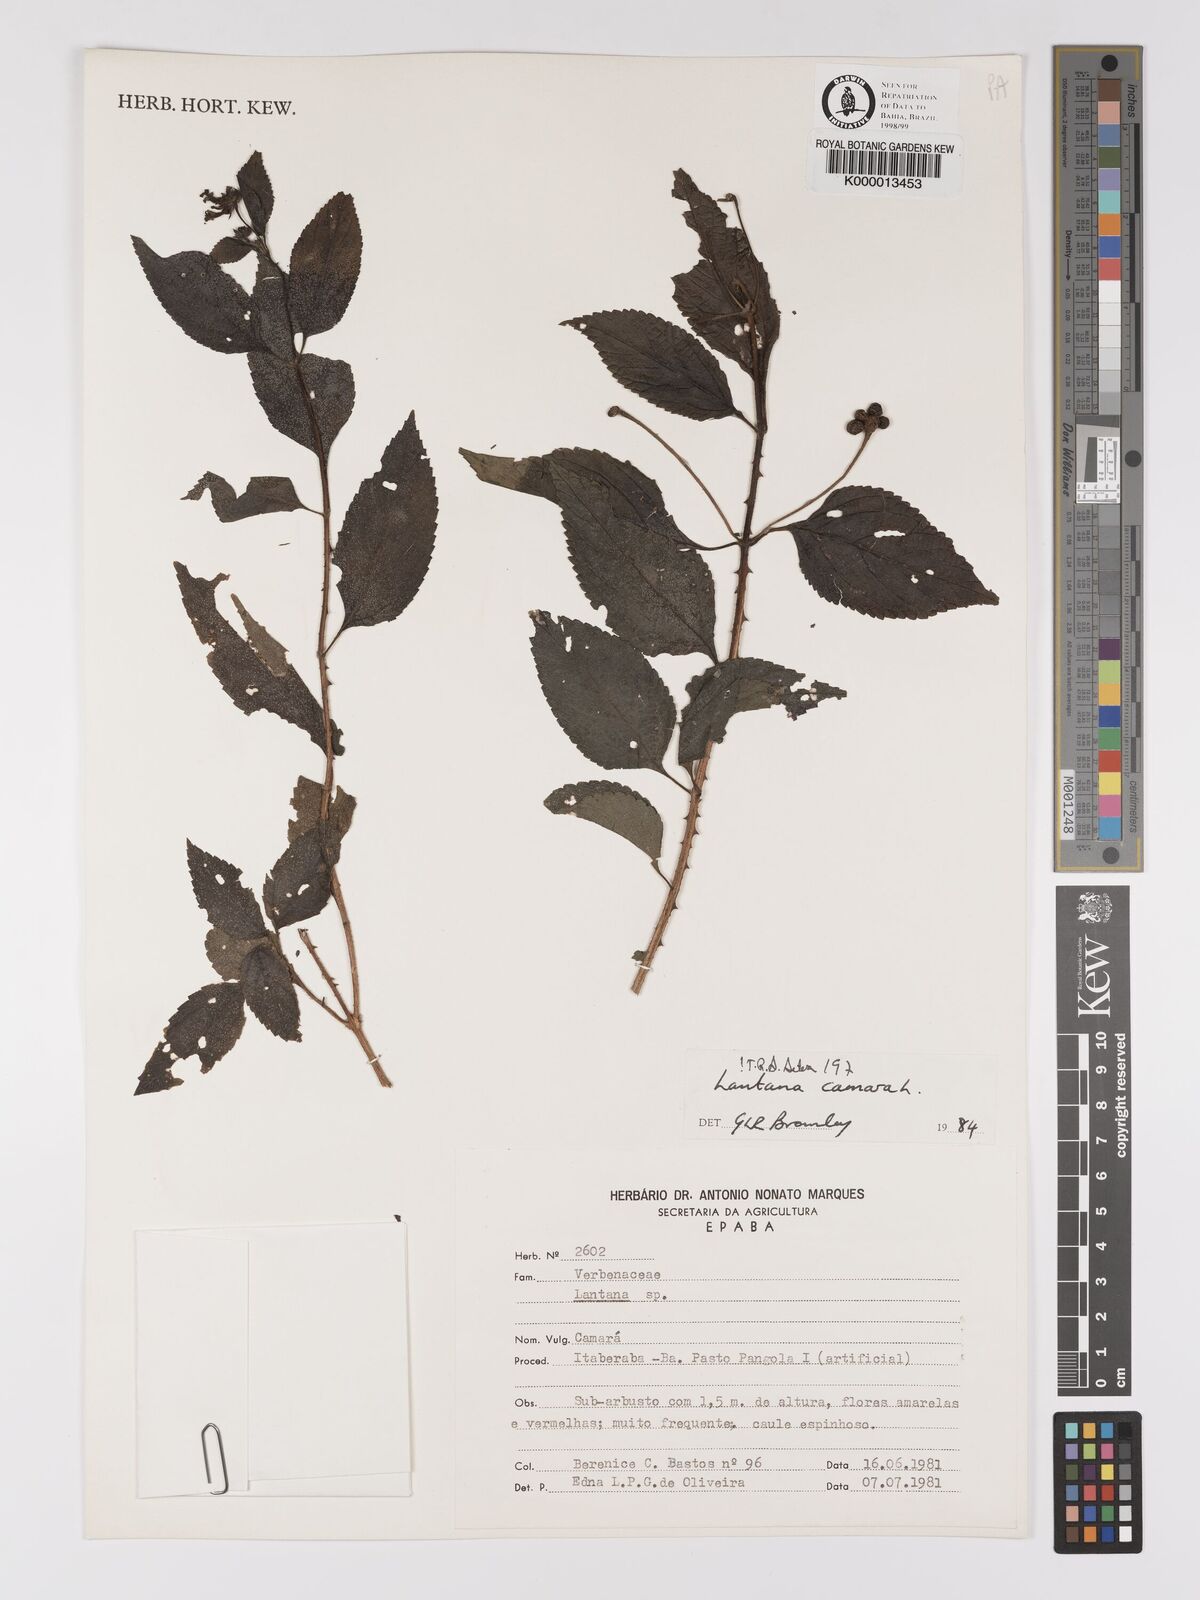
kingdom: Plantae
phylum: Tracheophyta
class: Magnoliopsida
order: Lamiales
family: Verbenaceae
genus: Lantana
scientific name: Lantana camara
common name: Lantana
